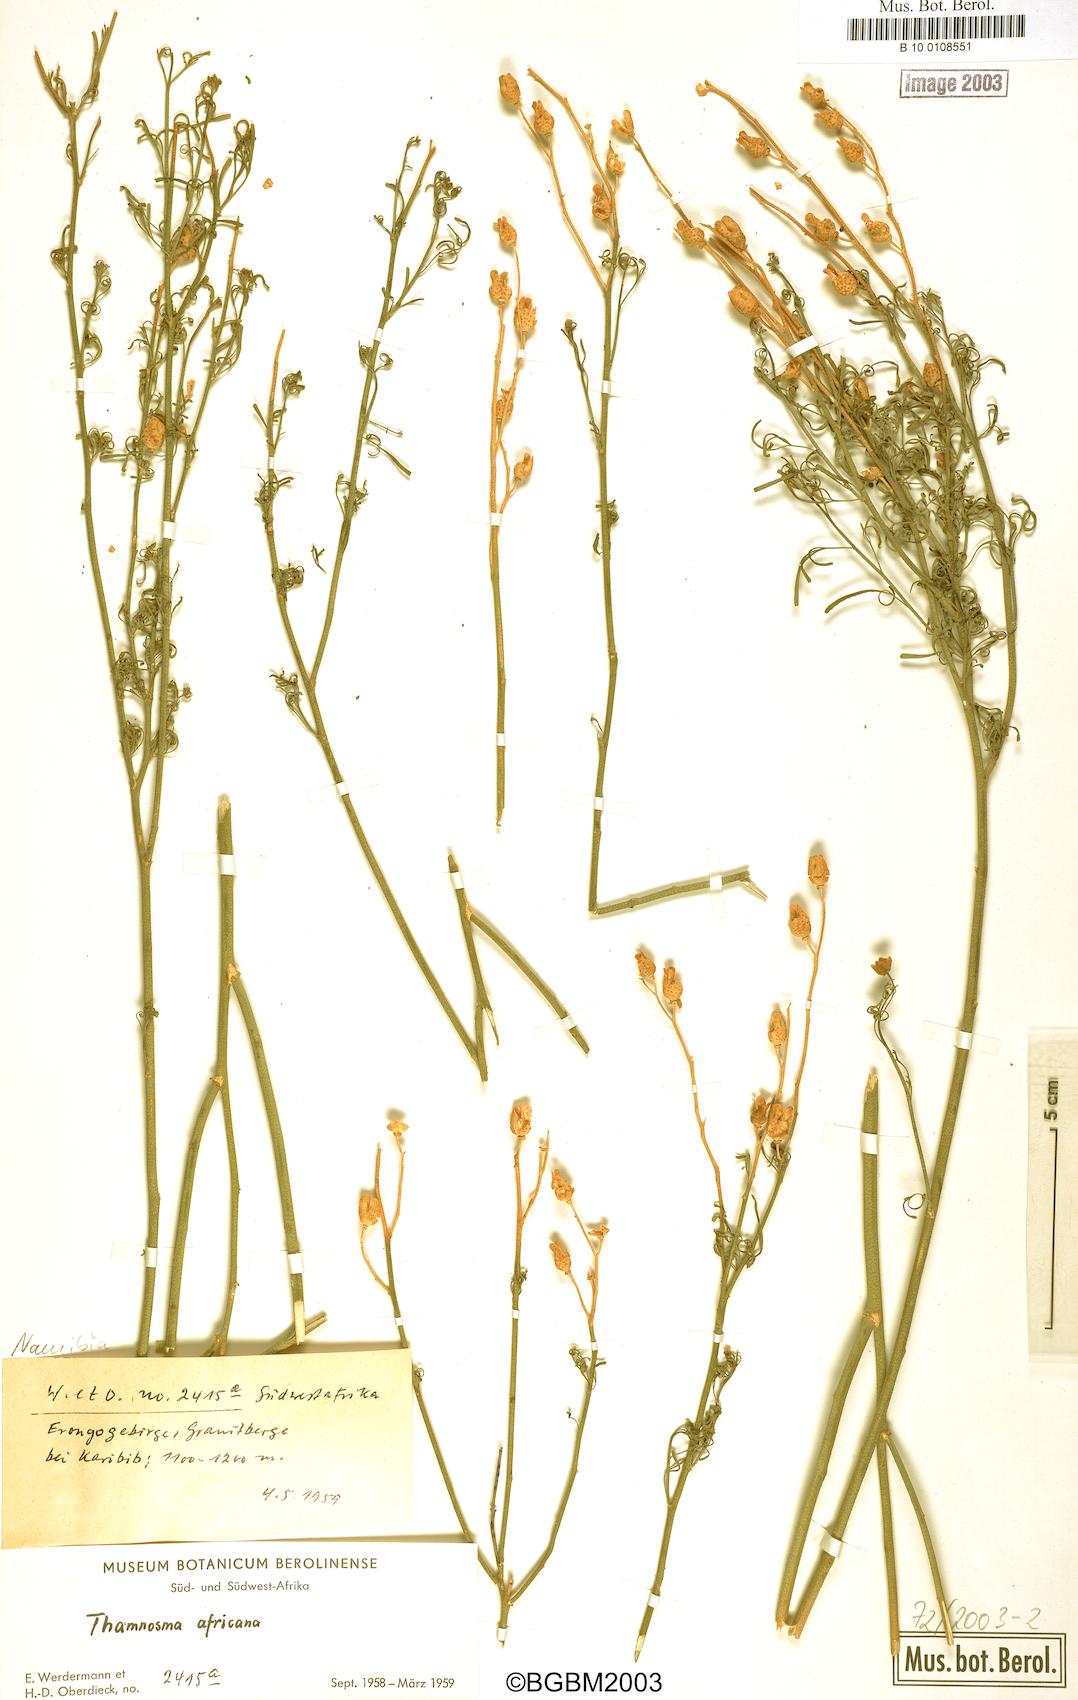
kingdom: Plantae
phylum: Tracheophyta
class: Magnoliopsida
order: Sapindales
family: Rutaceae
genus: Thamnosma
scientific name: Thamnosma africana
